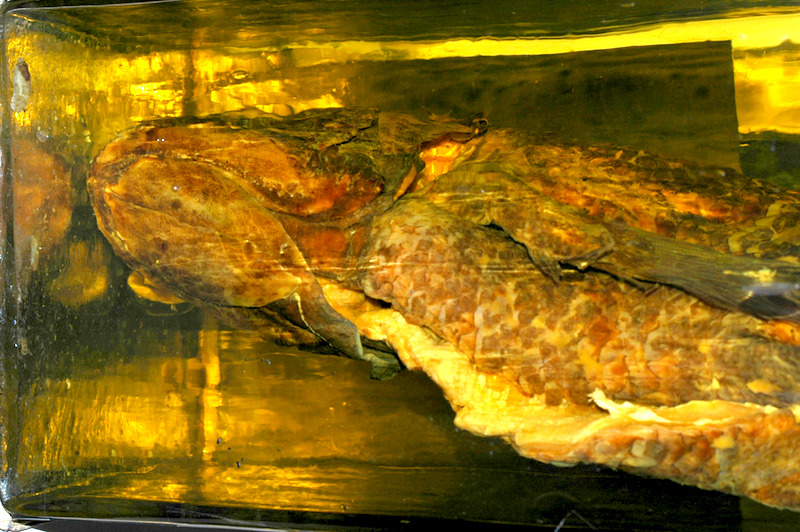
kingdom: Animalia
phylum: Chordata
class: Coelacanthi
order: Coelacanthiformes
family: Latimeriidae
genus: Latimeria
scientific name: Latimeria chalumnae
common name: Coelacanth
